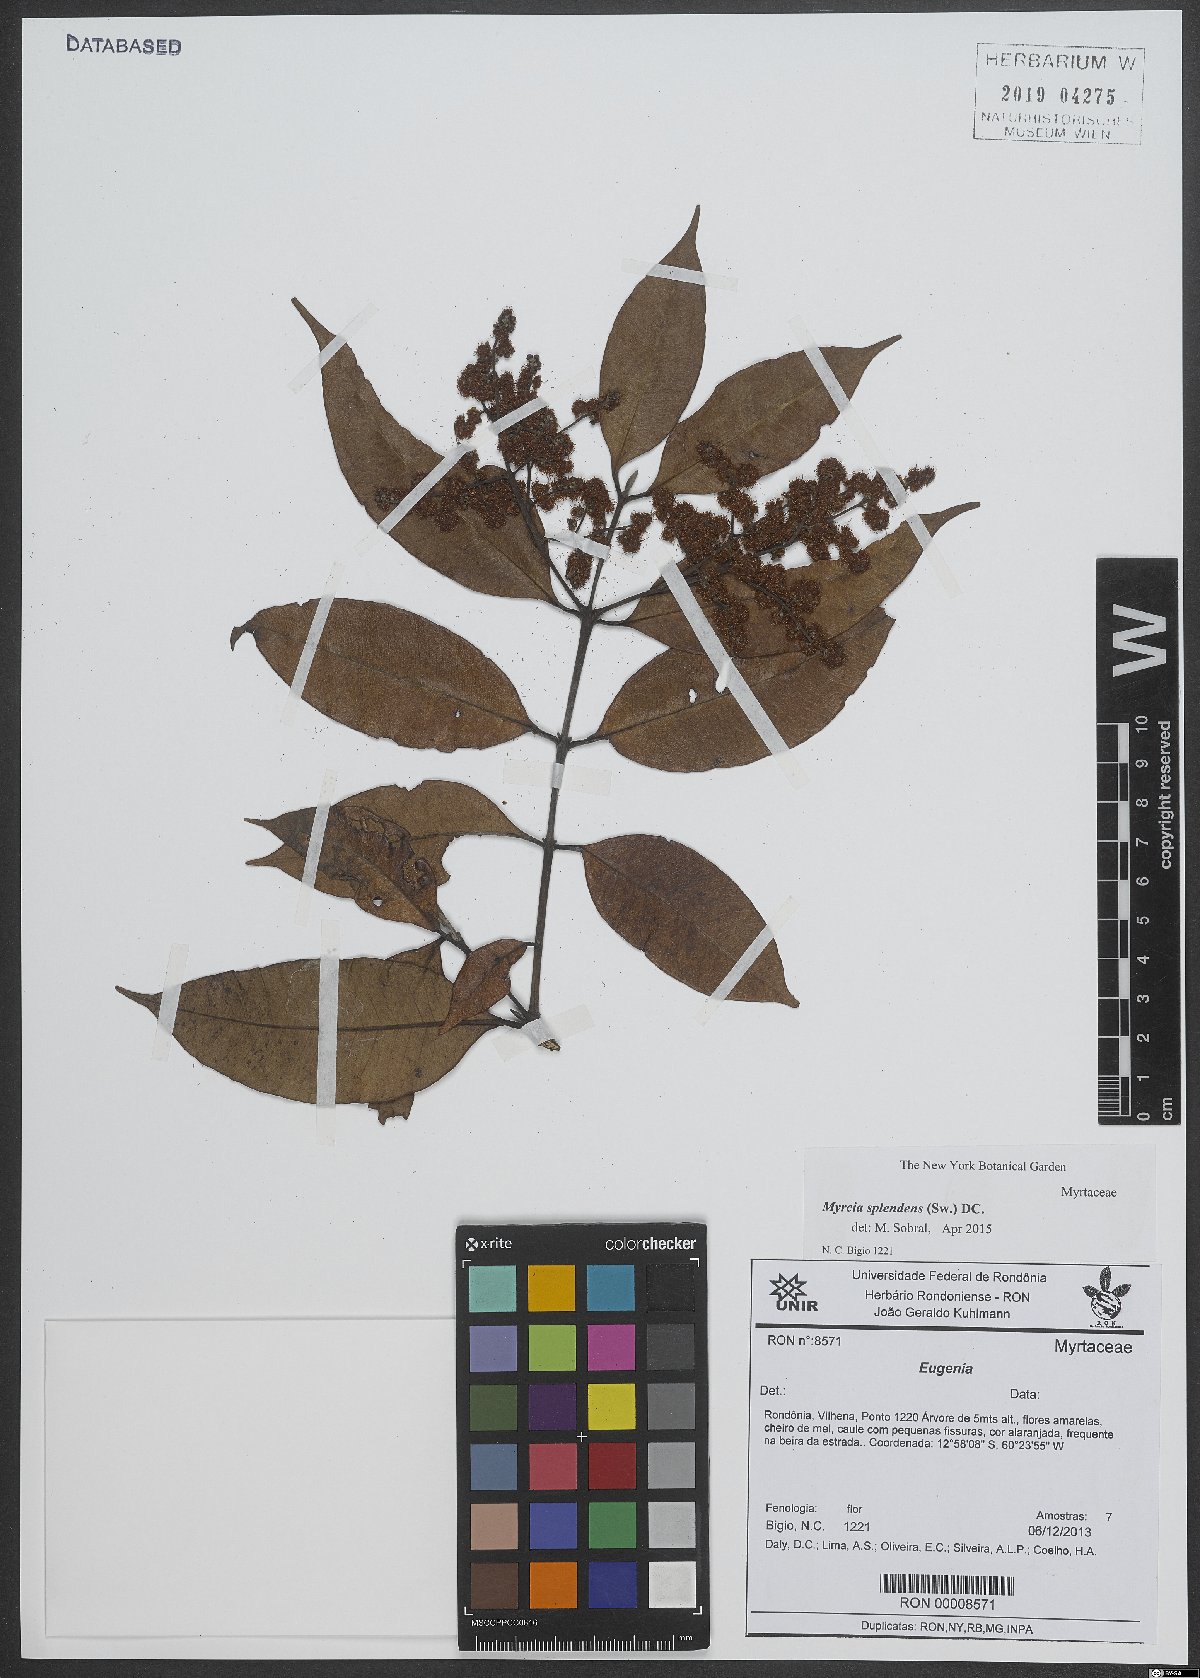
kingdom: Plantae
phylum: Tracheophyta
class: Magnoliopsida
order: Myrtales
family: Myrtaceae
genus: Myrcia
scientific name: Myrcia splendens
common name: Surinam cherry
